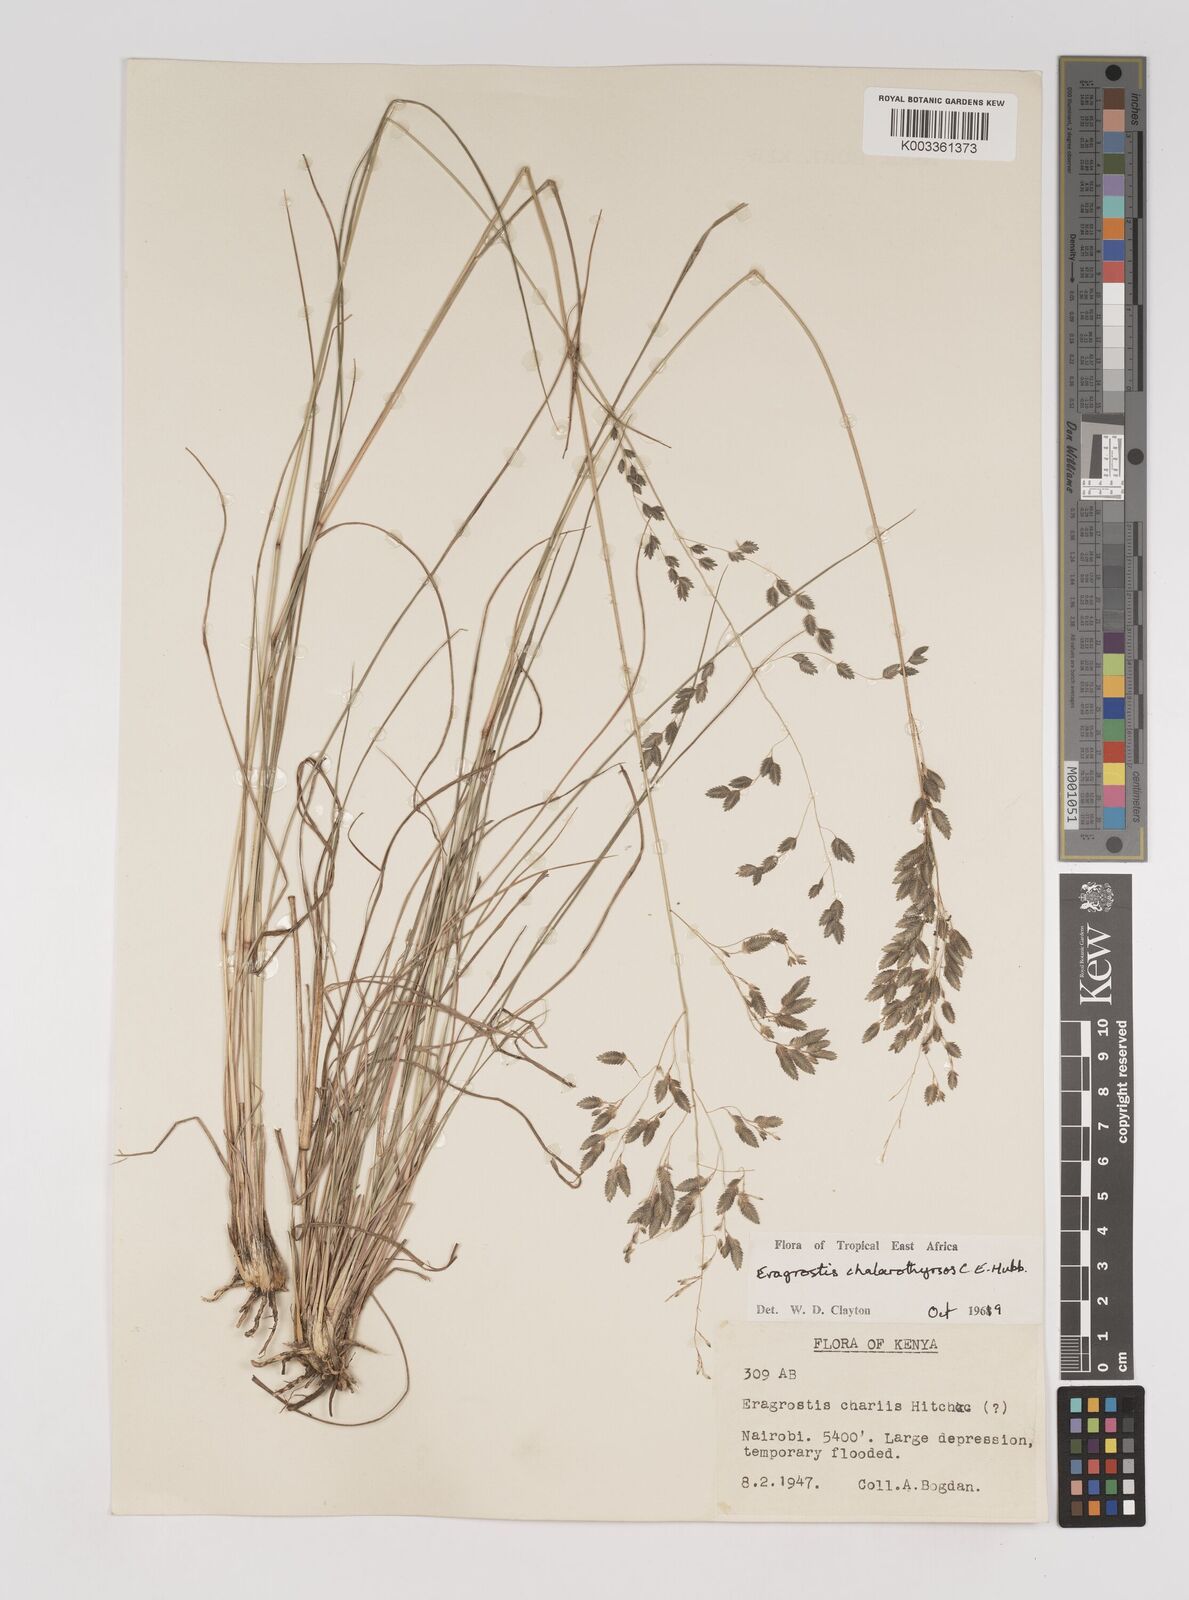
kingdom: Plantae
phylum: Tracheophyta
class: Liliopsida
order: Poales
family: Poaceae
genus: Eragrostis
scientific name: Eragrostis chalarothyrsos
